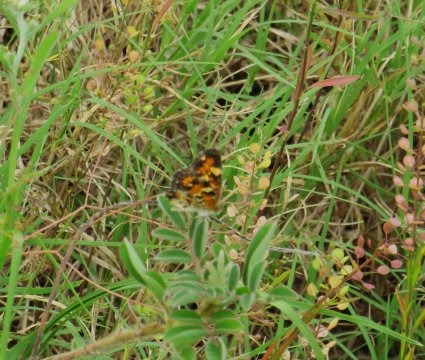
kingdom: Animalia
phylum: Arthropoda
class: Insecta
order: Lepidoptera
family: Nymphalidae
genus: Phyciodes
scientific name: Phyciodes phaon
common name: Phaon Crescent
